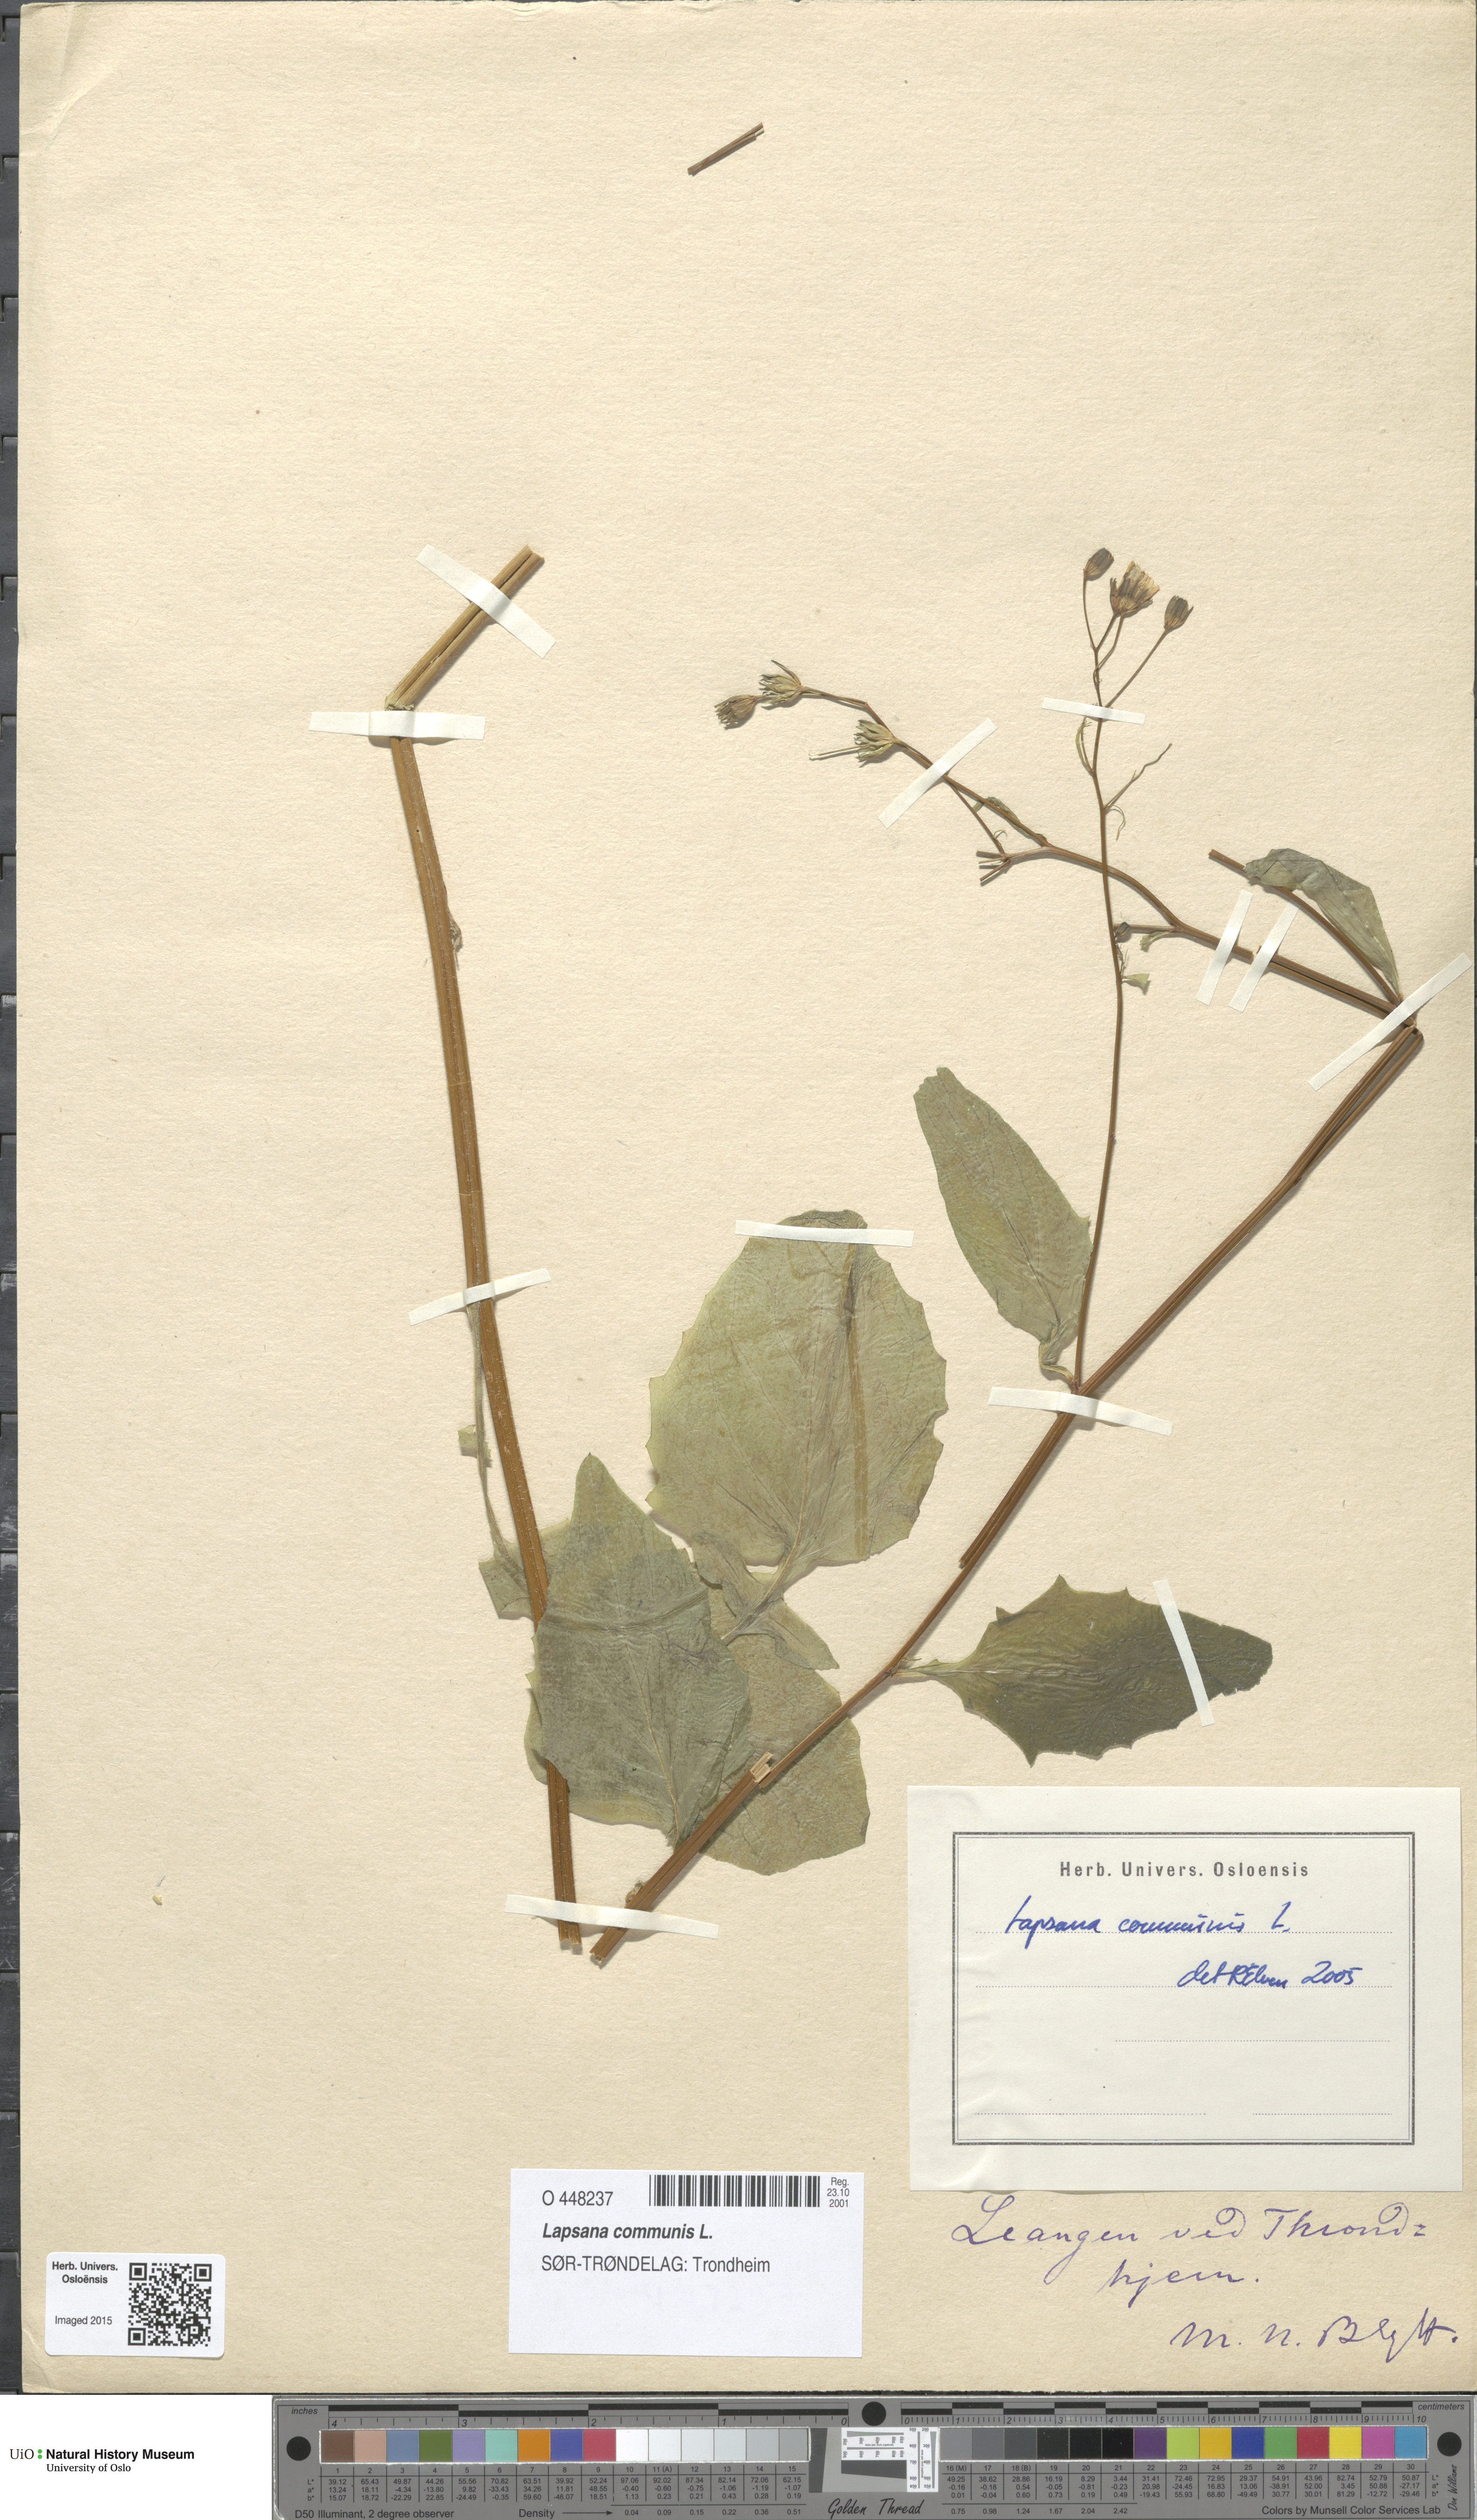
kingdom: Plantae
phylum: Tracheophyta
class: Magnoliopsida
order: Asterales
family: Asteraceae
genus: Lapsana
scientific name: Lapsana communis
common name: Nipplewort
